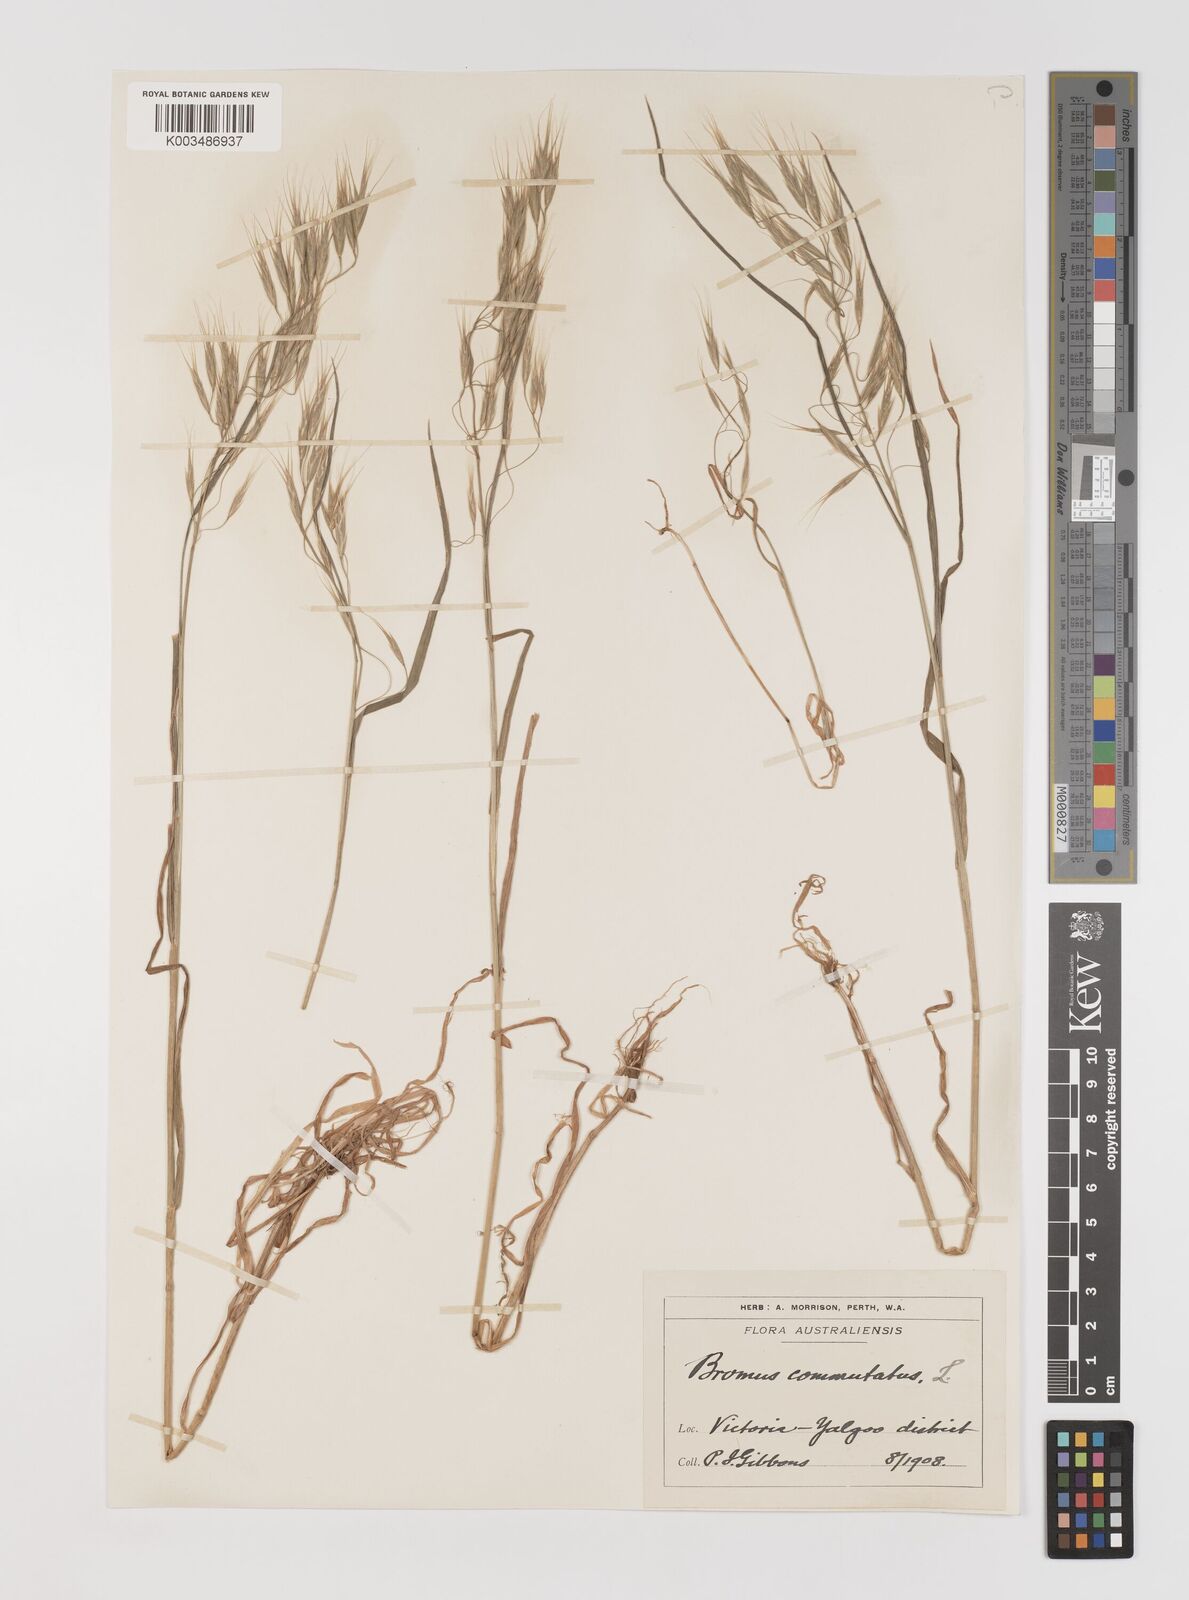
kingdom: Plantae
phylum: Tracheophyta
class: Liliopsida
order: Poales
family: Poaceae
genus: Bromus
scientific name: Bromus arenarius
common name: Australian brome
